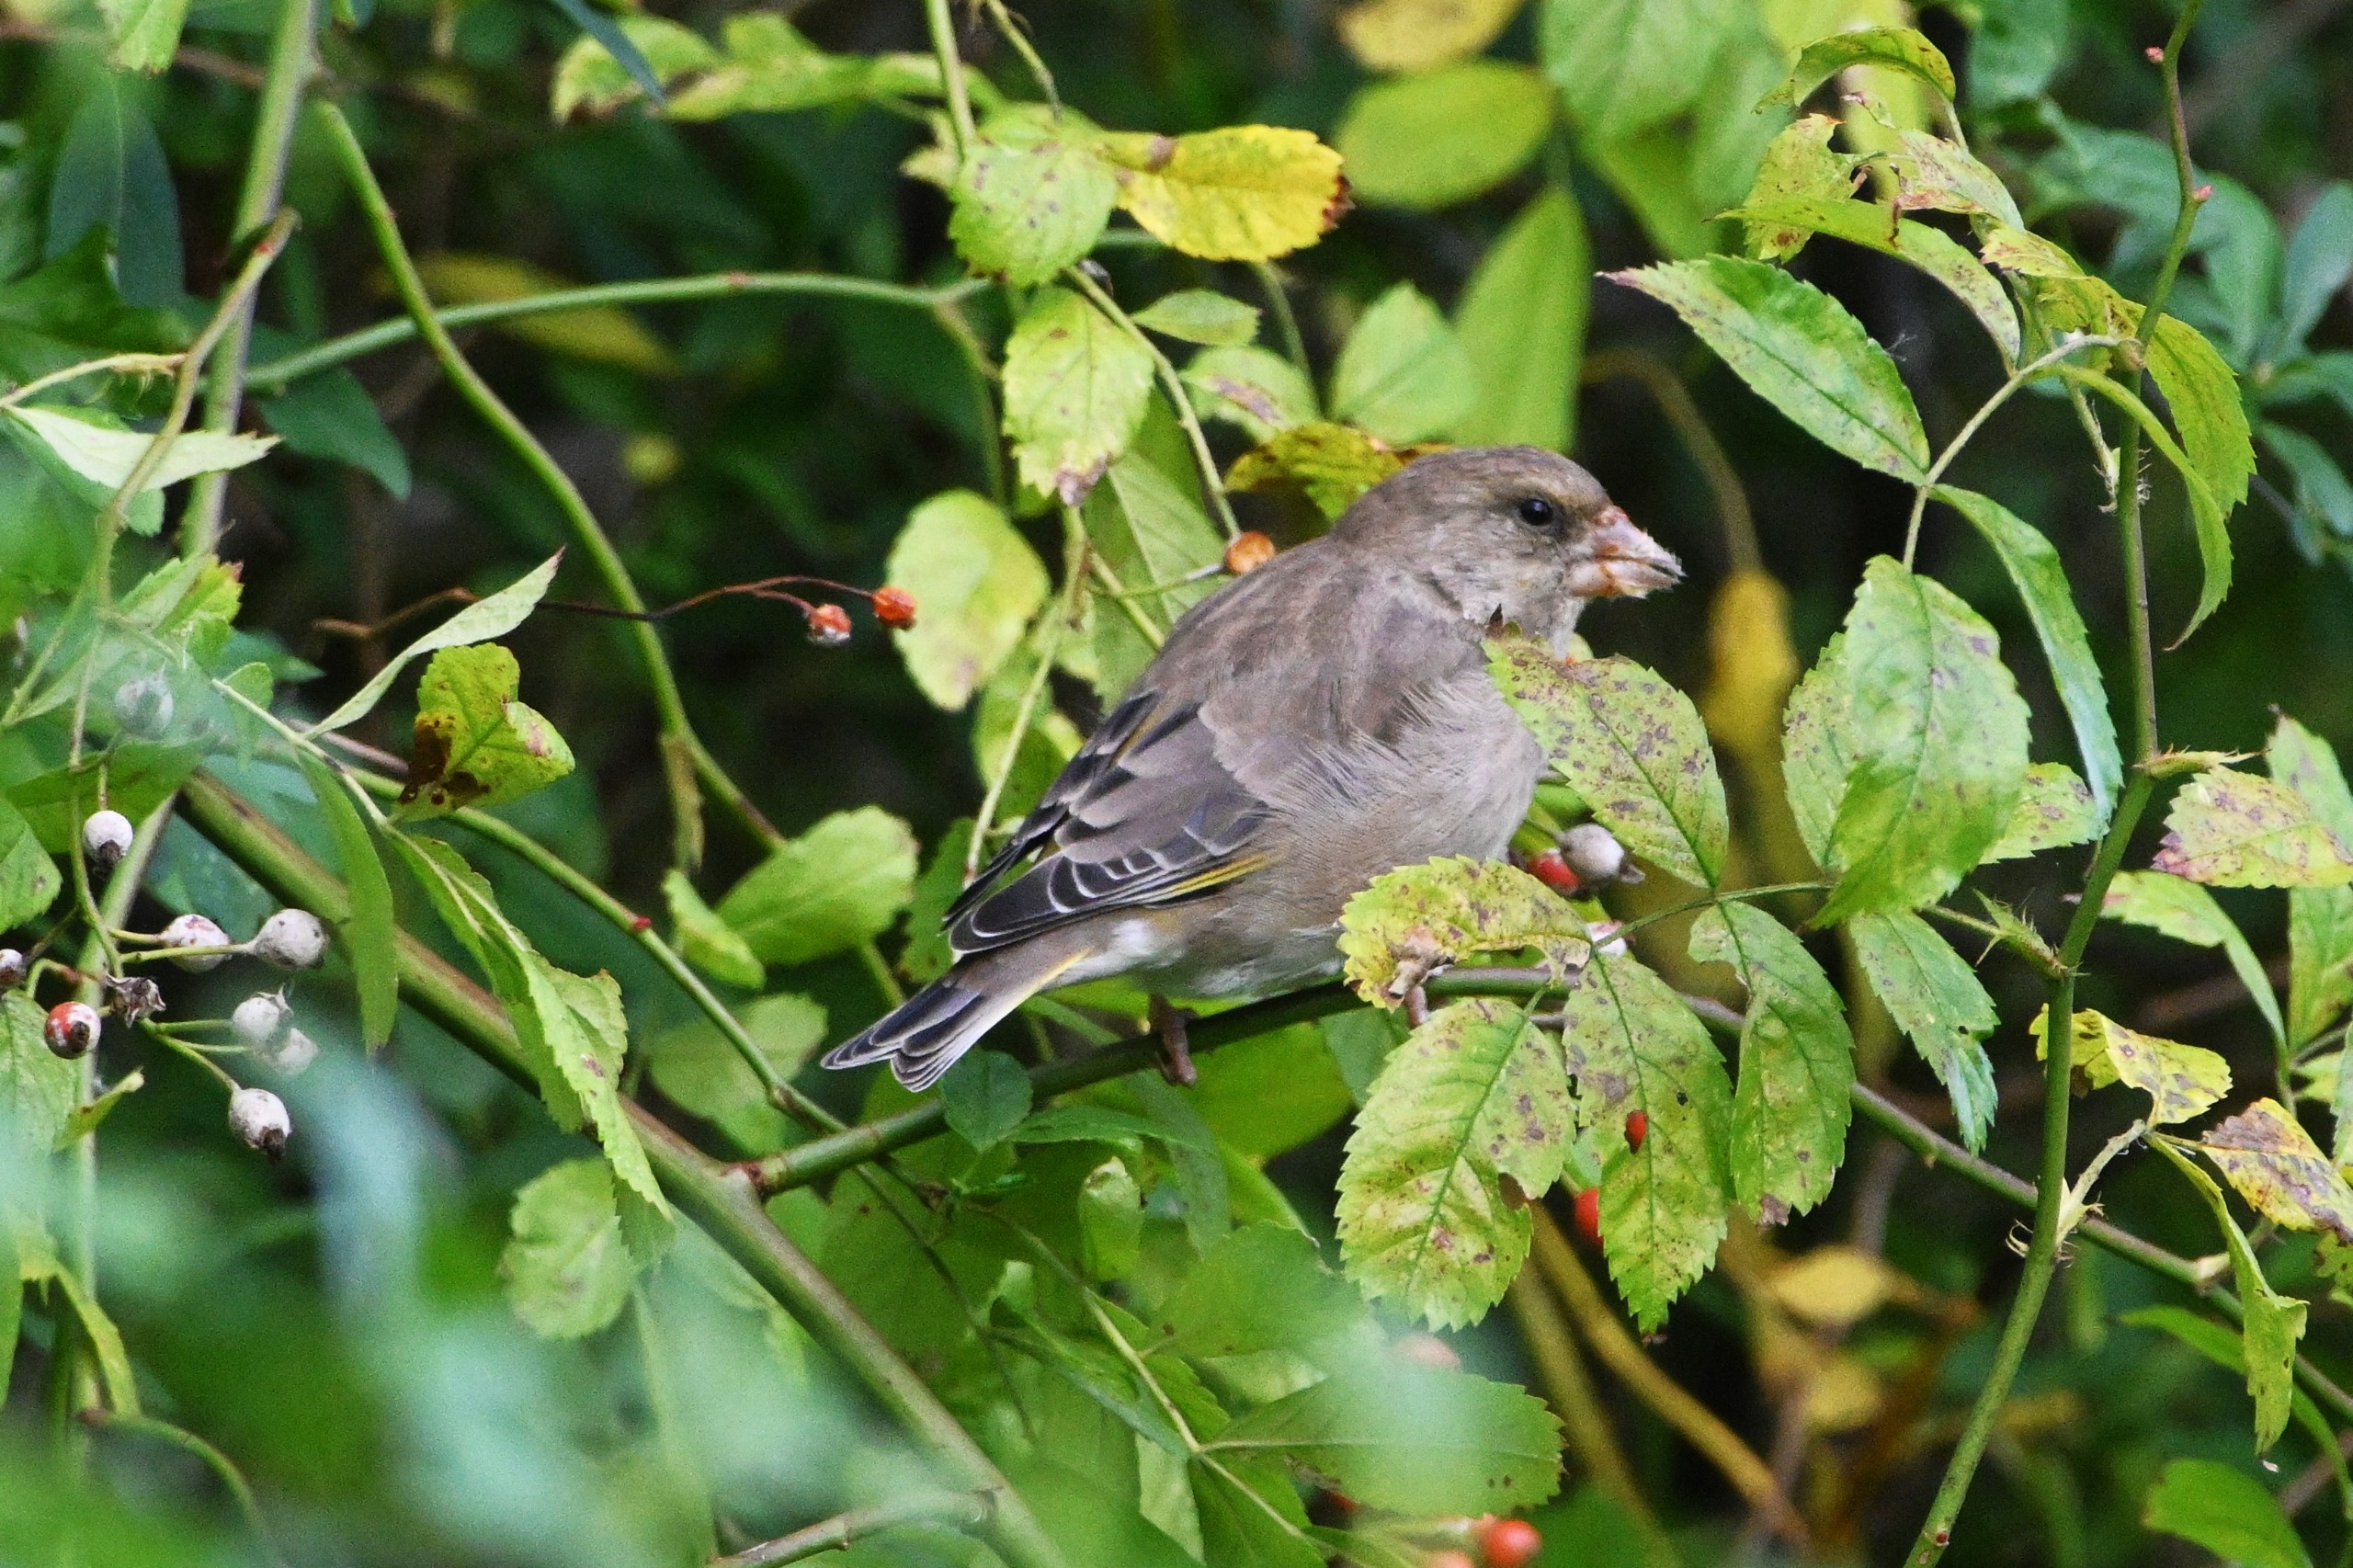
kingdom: Plantae
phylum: Tracheophyta
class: Liliopsida
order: Poales
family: Poaceae
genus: Chloris
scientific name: Chloris chloris
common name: Grønirisk
